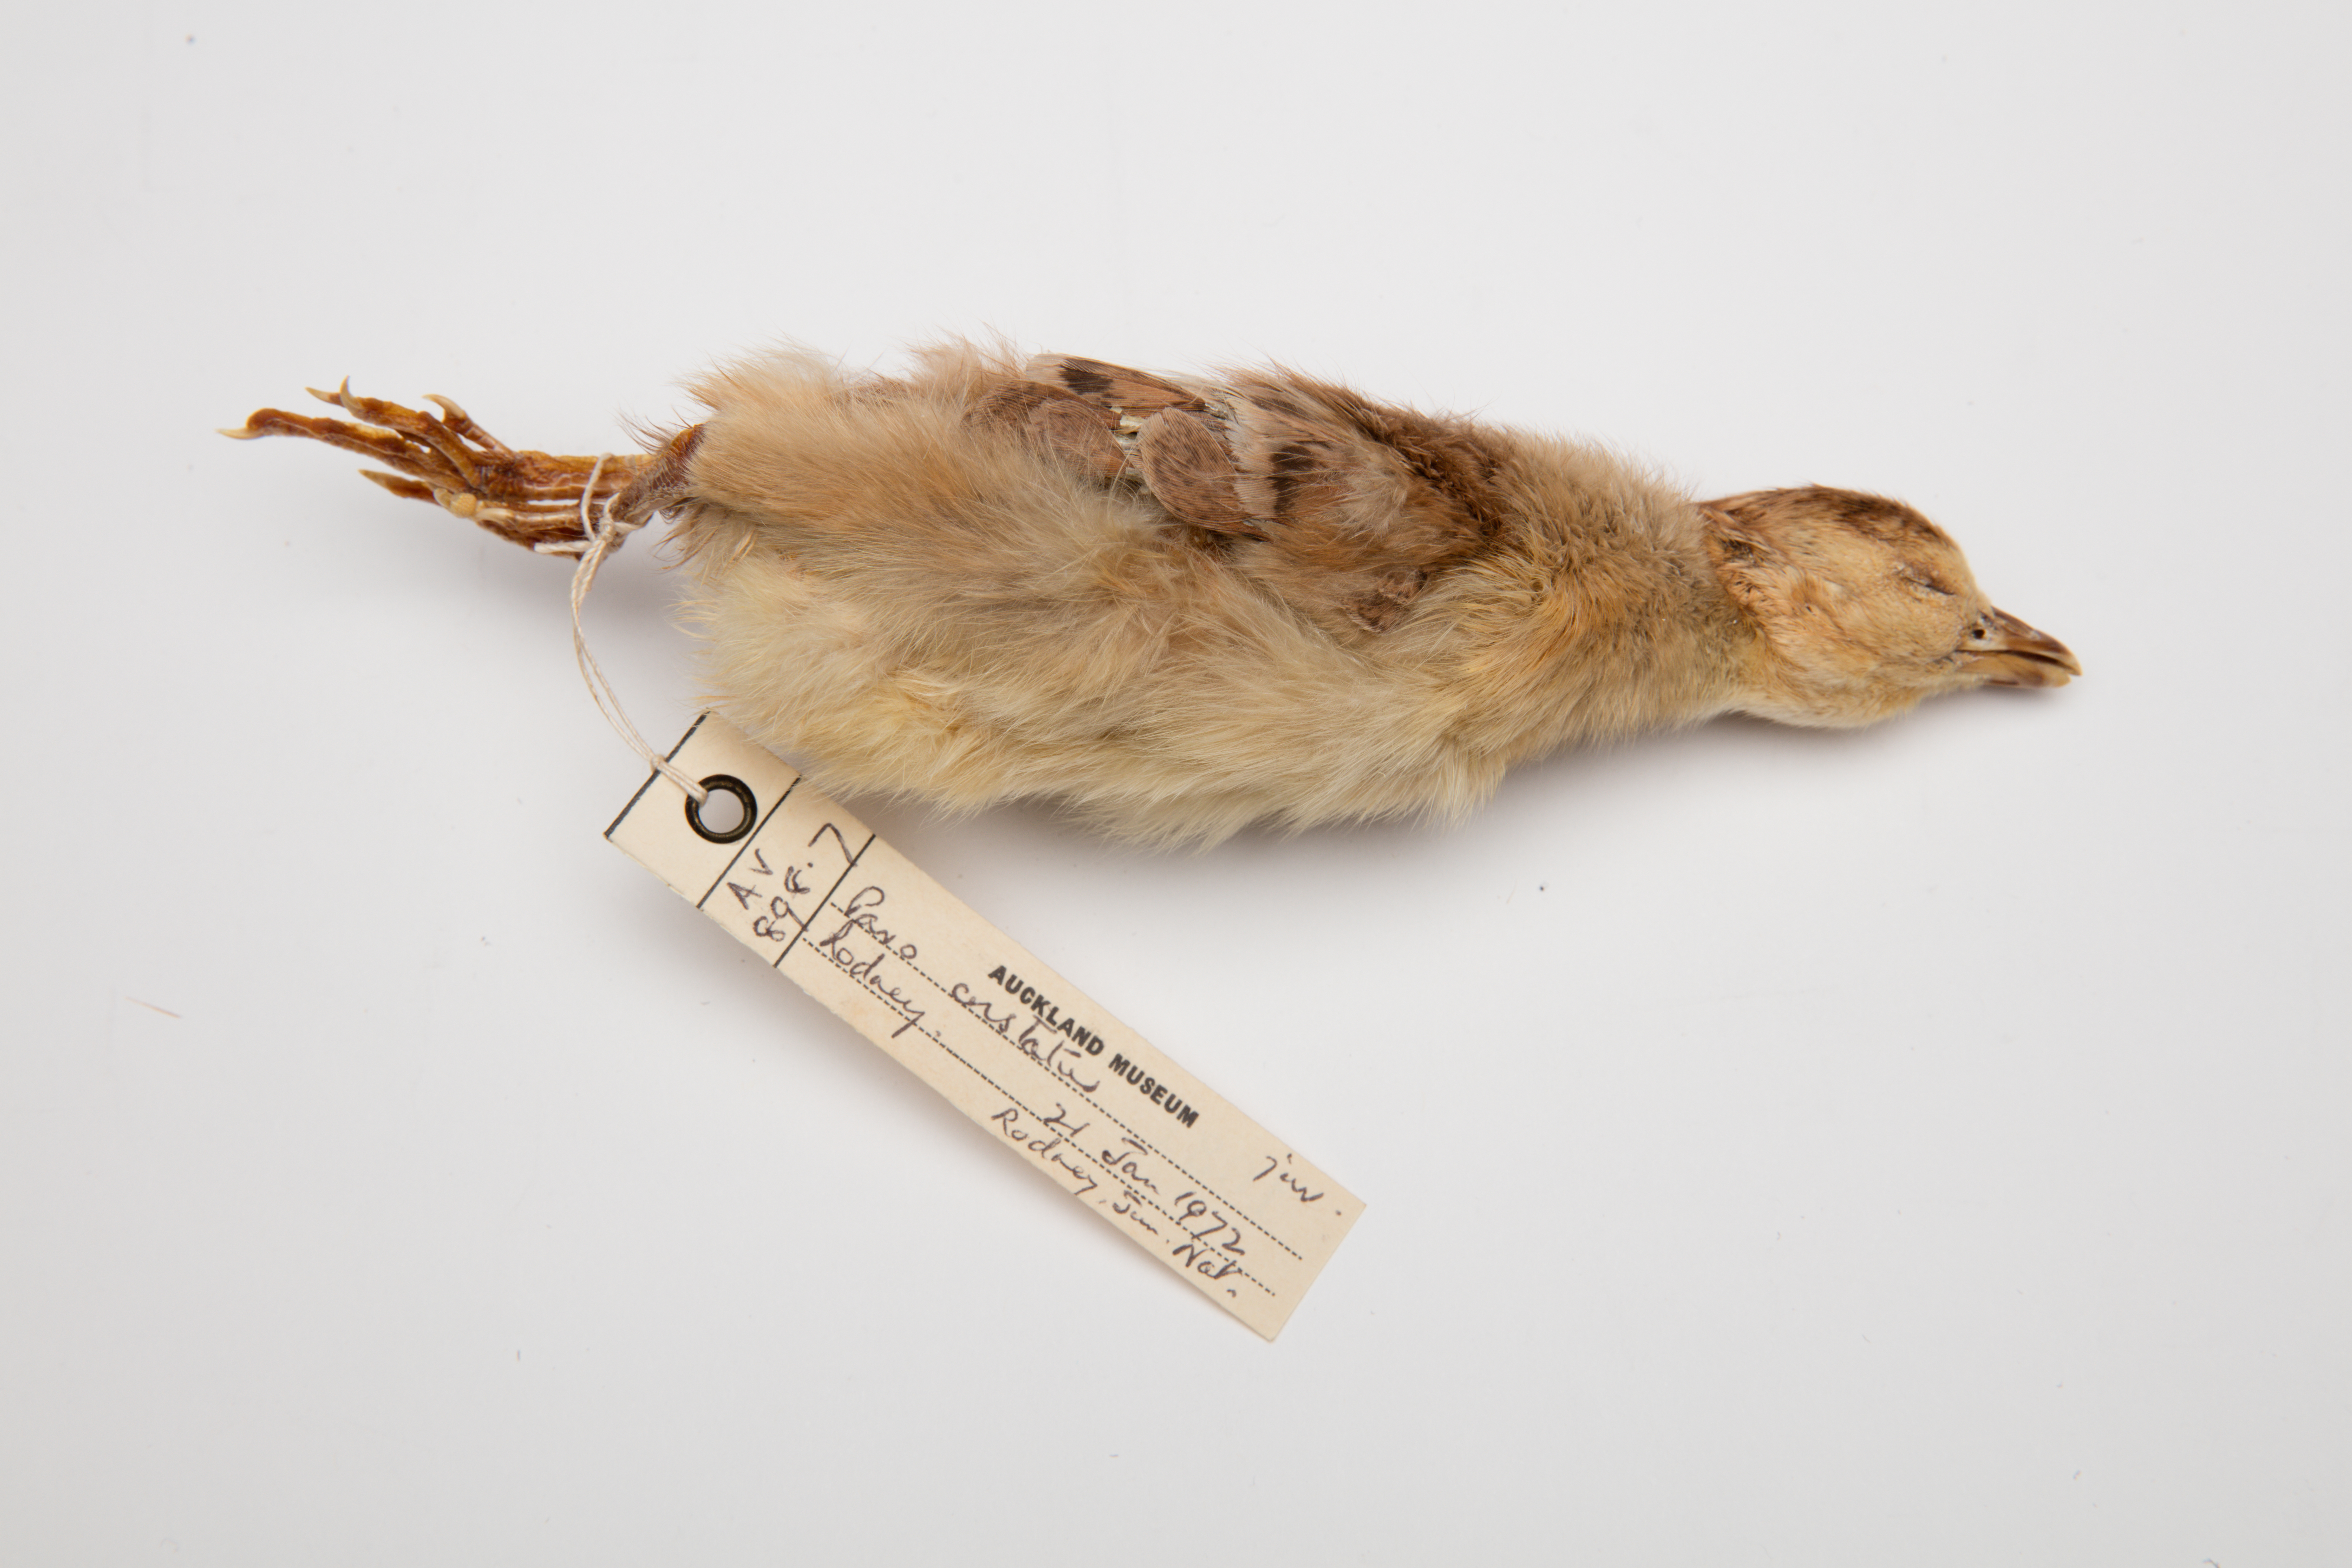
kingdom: Animalia
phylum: Chordata
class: Aves
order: Galliformes
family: Phasianidae
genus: Pavo
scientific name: Pavo cristatus
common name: Indian peafowl
